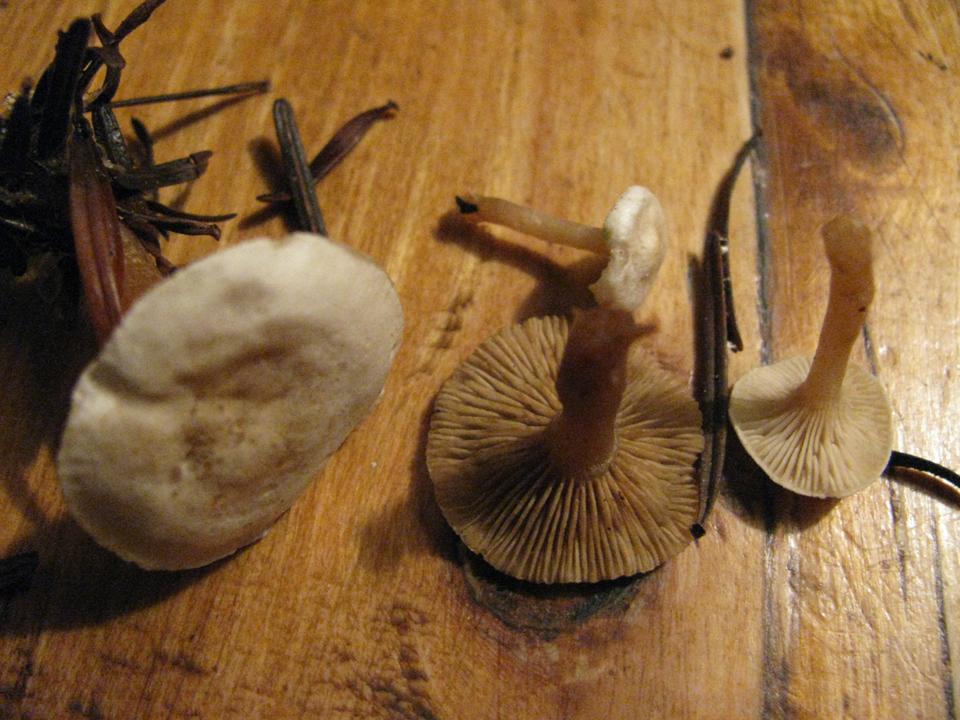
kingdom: Fungi
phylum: Basidiomycota
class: Agaricomycetes
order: Agaricales
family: Tricholomataceae
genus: Ripartites
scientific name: Ripartites tricholoma
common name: almindelig skæghat
